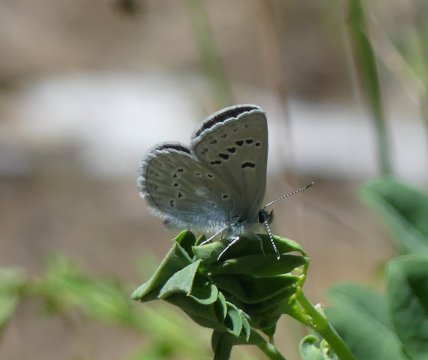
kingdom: Animalia
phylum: Arthropoda
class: Insecta
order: Lepidoptera
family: Lycaenidae
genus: Icaricia
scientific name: Icaricia icarioides
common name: Boisduval's Blue
